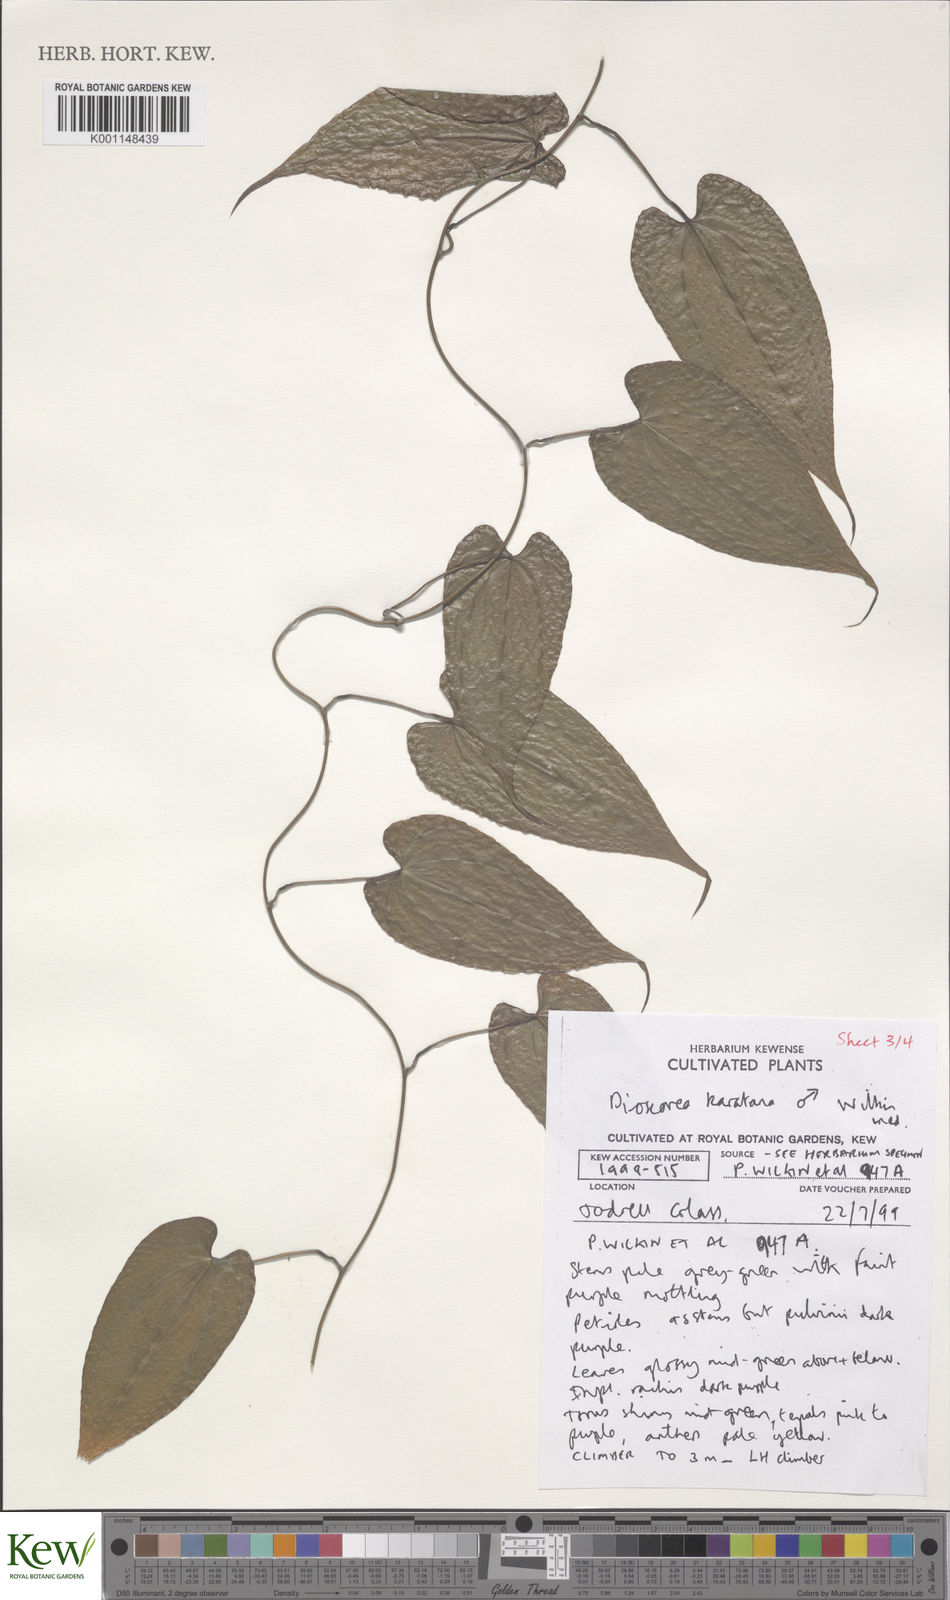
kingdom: Plantae
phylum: Tracheophyta
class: Liliopsida
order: Dioscoreales
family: Dioscoreaceae
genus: Dioscorea
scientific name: Dioscorea madecassa
